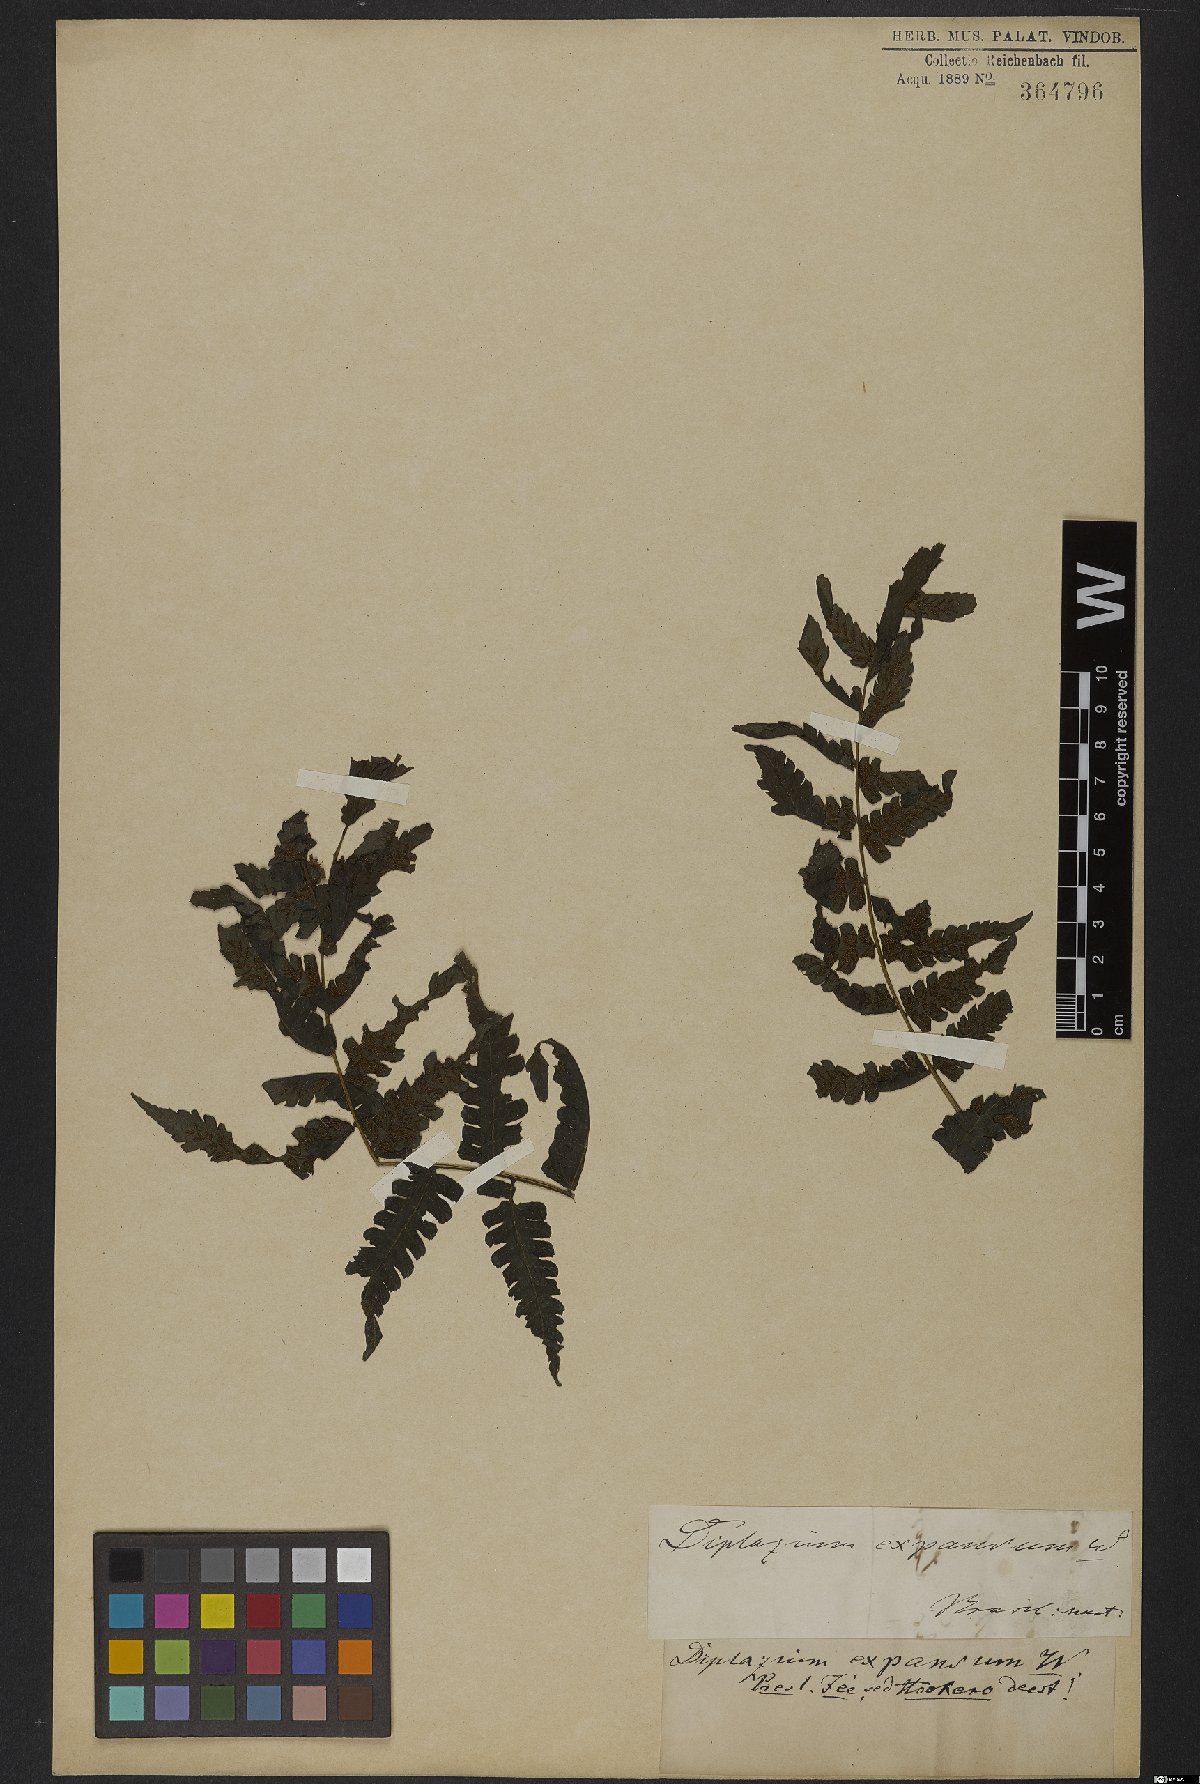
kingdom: Plantae
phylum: Tracheophyta
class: Polypodiopsida
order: Polypodiales
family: Athyriaceae
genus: Diplazium
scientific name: Diplazium expansum
